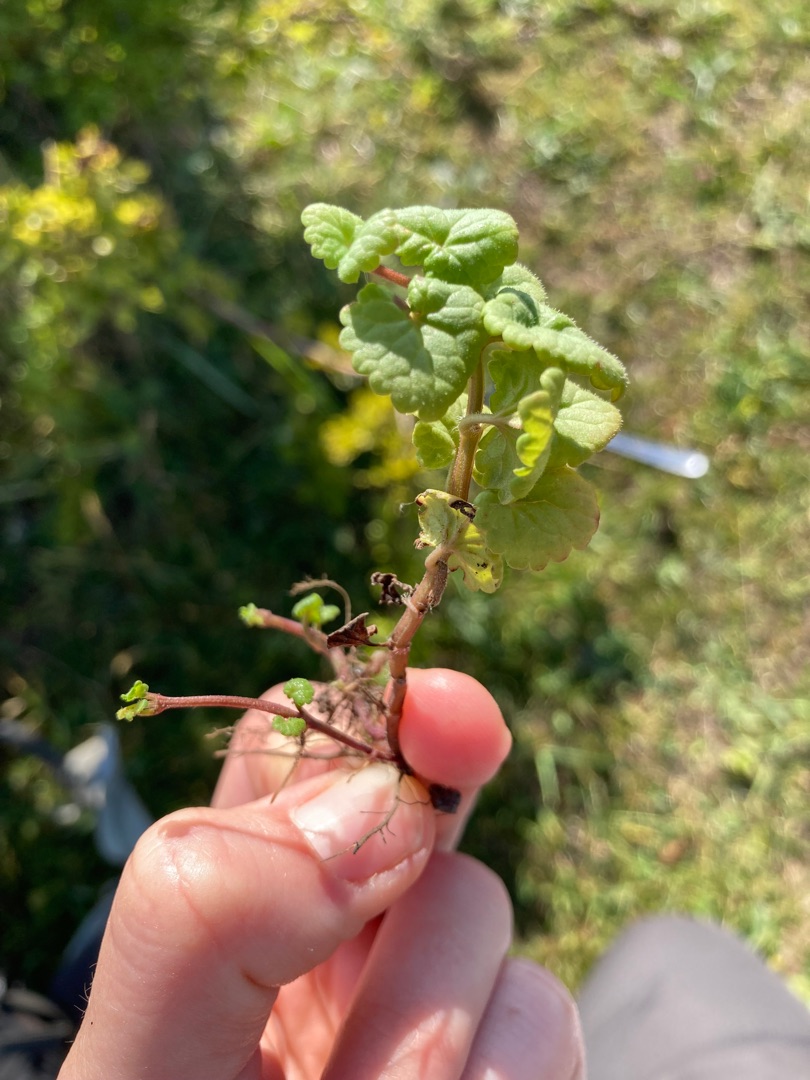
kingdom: Plantae
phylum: Tracheophyta
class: Magnoliopsida
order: Lamiales
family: Lamiaceae
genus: Glechoma
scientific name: Glechoma hederacea
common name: Korsknap
